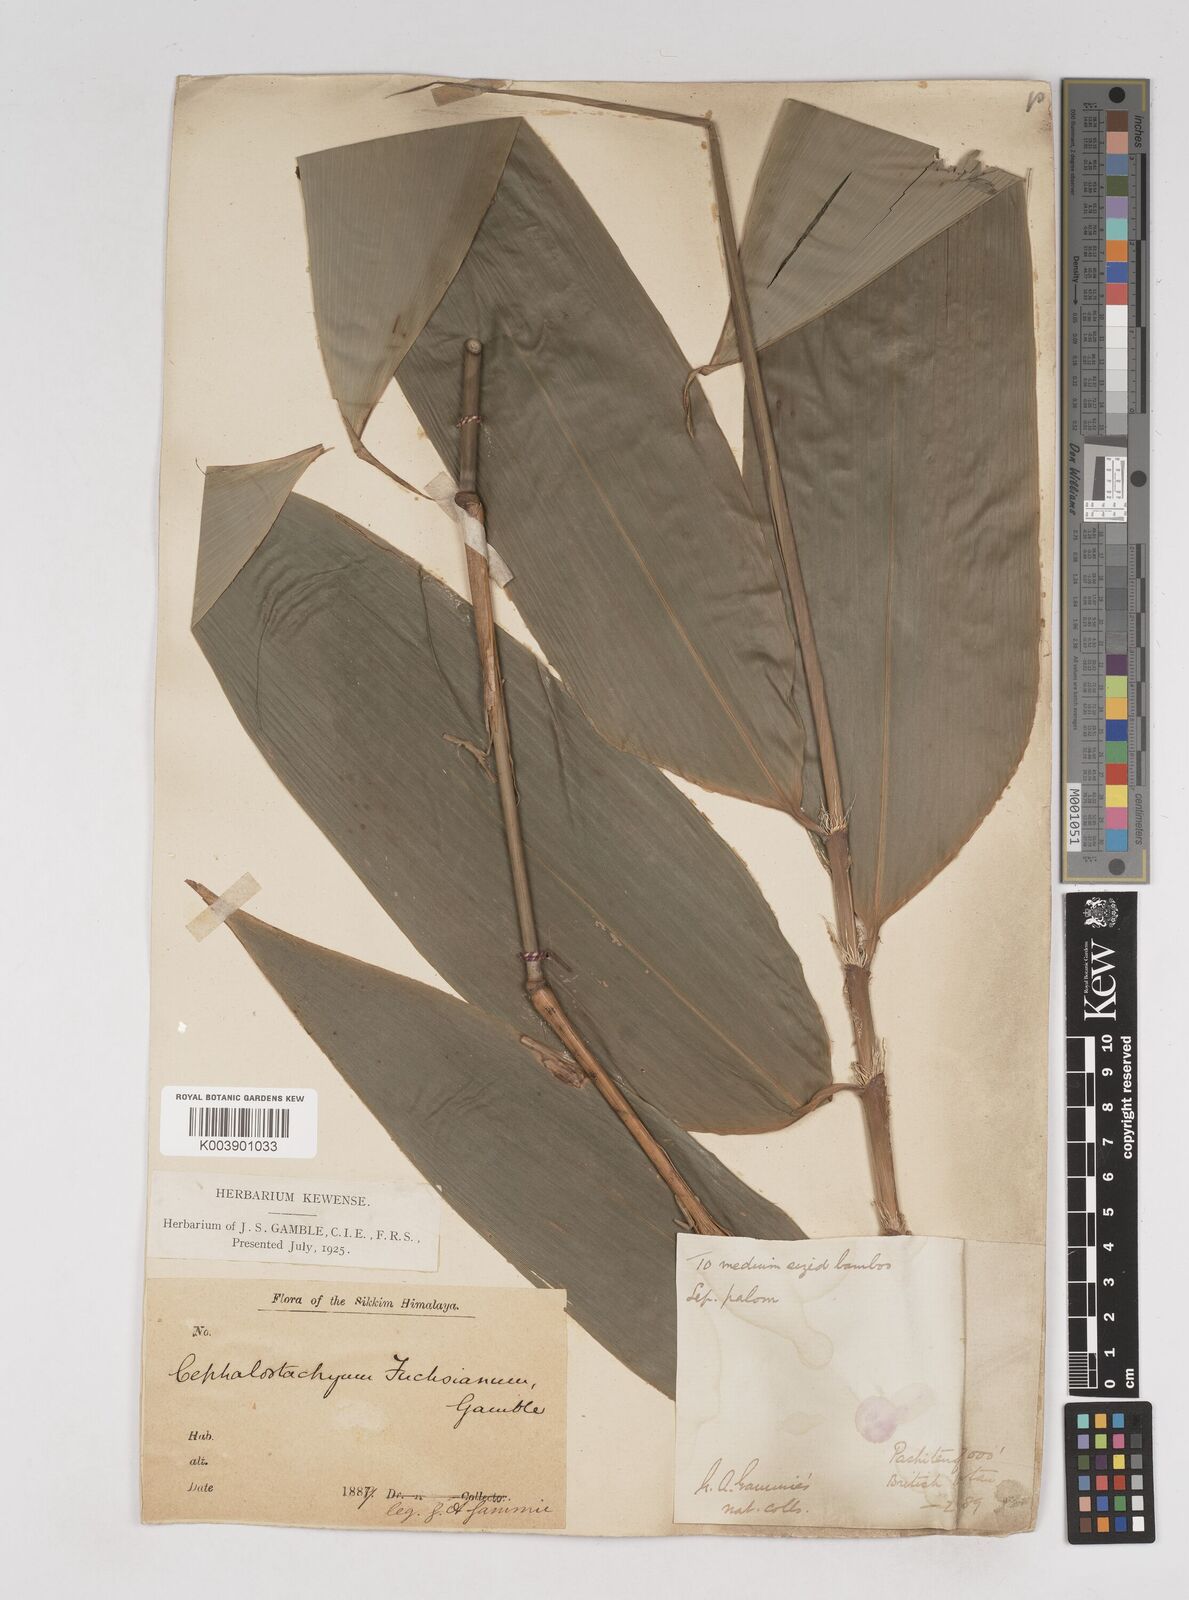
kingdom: Plantae
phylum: Tracheophyta
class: Liliopsida
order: Poales
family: Poaceae
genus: Cephalostachyum
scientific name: Cephalostachyum latifolium
